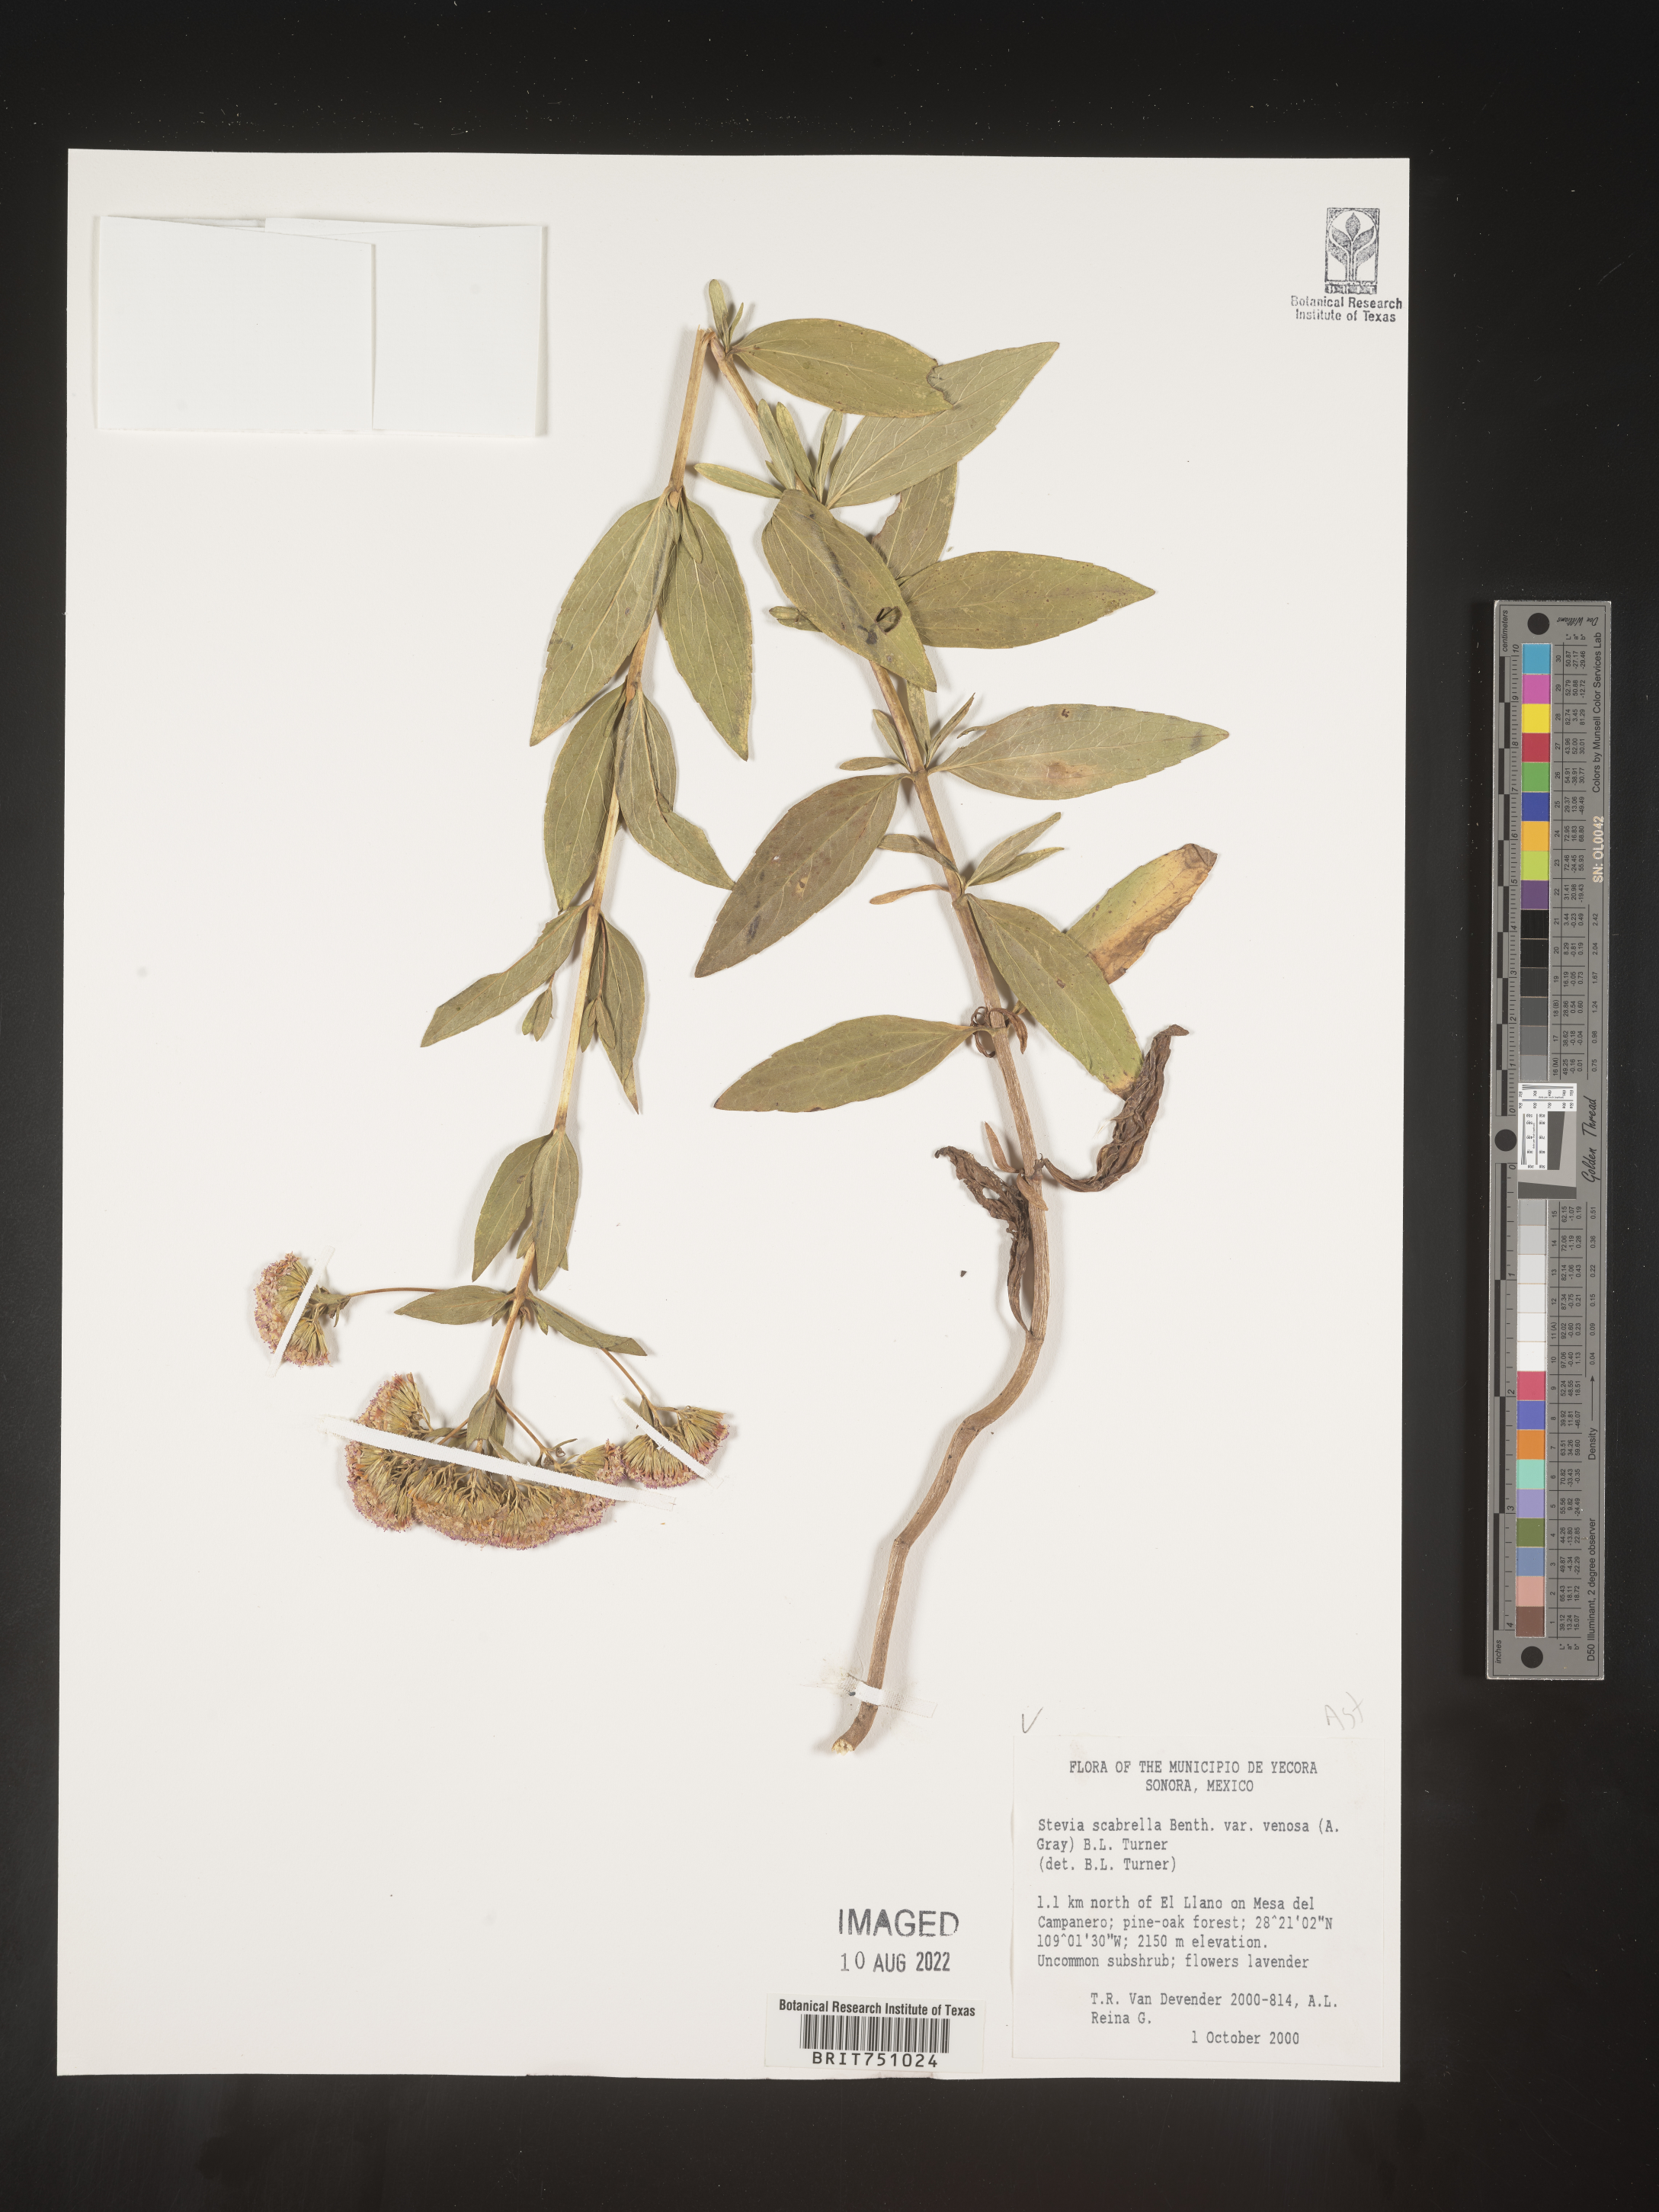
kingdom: Plantae
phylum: Tracheophyta
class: Magnoliopsida
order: Asterales
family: Asteraceae
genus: Stevia
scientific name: Stevia scabrella
